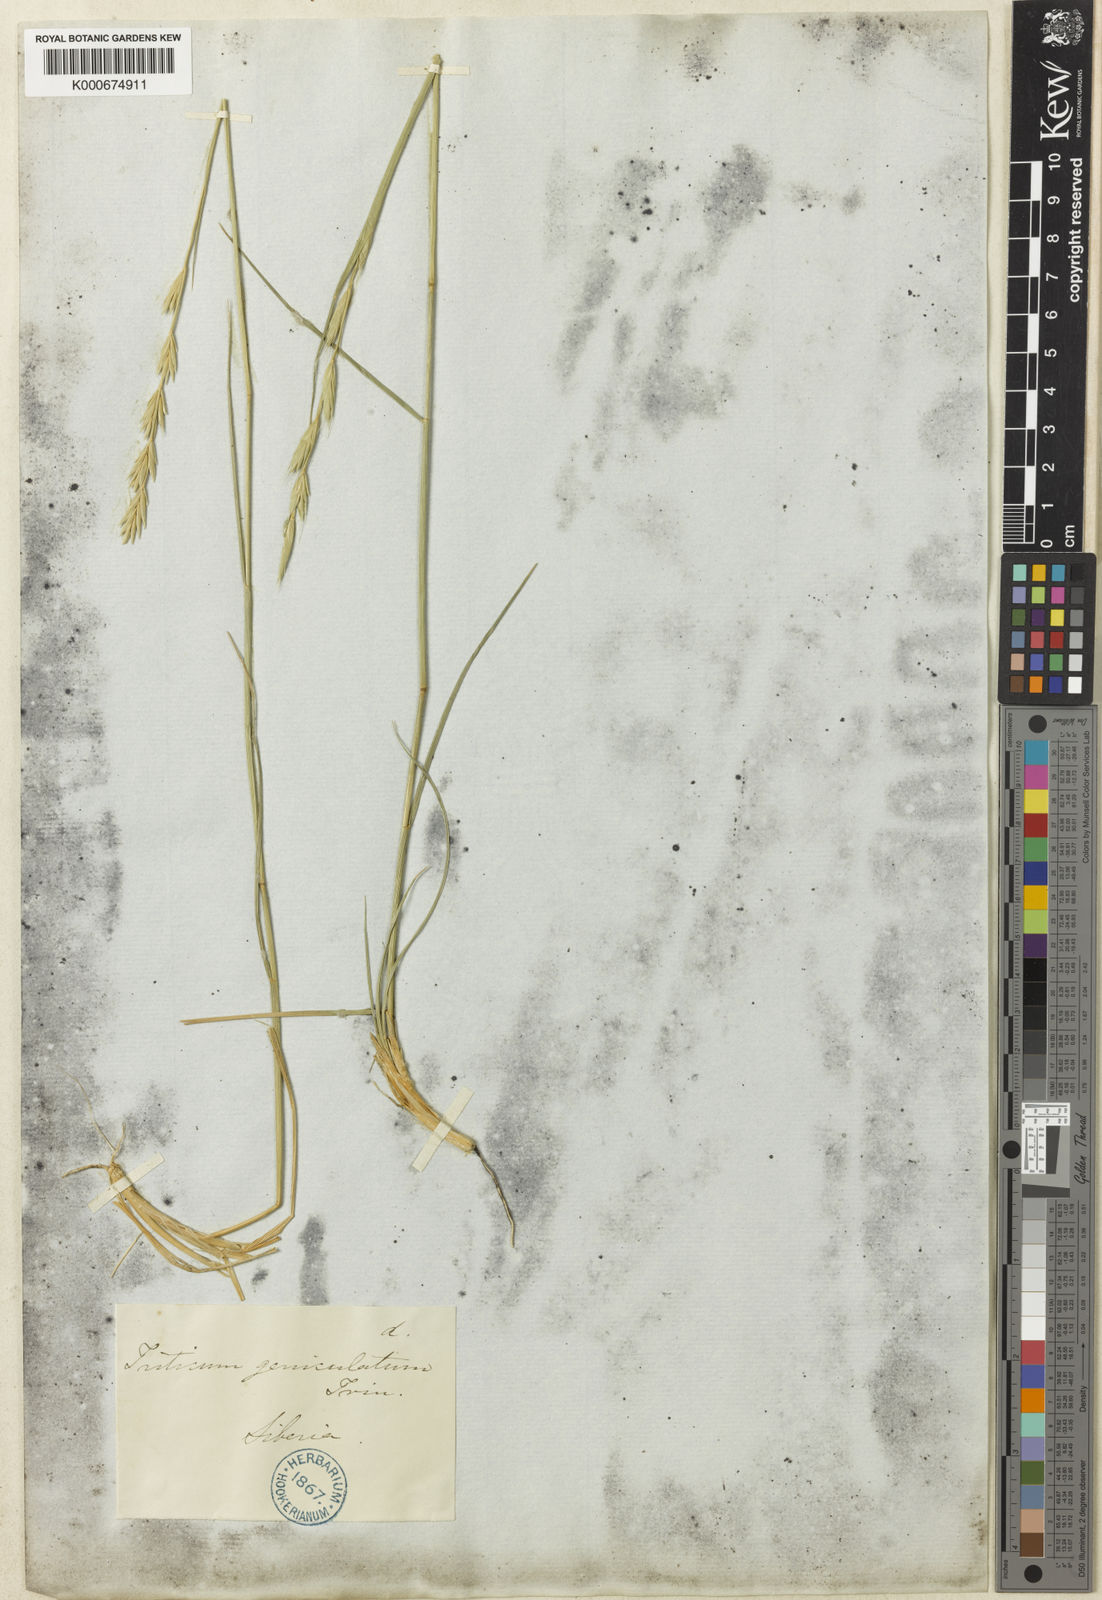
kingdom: Plantae
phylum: Tracheophyta
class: Liliopsida
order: Poales
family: Poaceae
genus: Elymus
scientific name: Elymus
